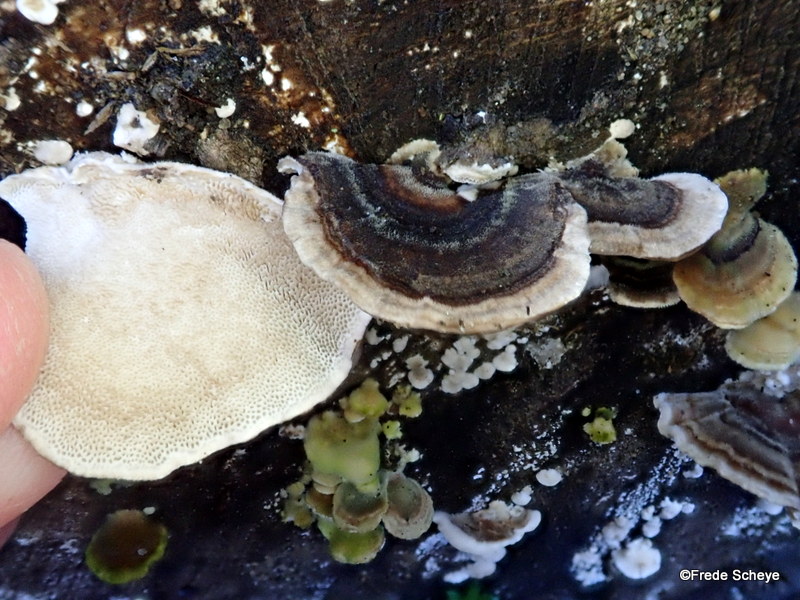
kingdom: Fungi
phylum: Basidiomycota
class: Agaricomycetes
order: Polyporales
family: Polyporaceae
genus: Trametes
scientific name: Trametes versicolor
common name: broget læderporesvamp
